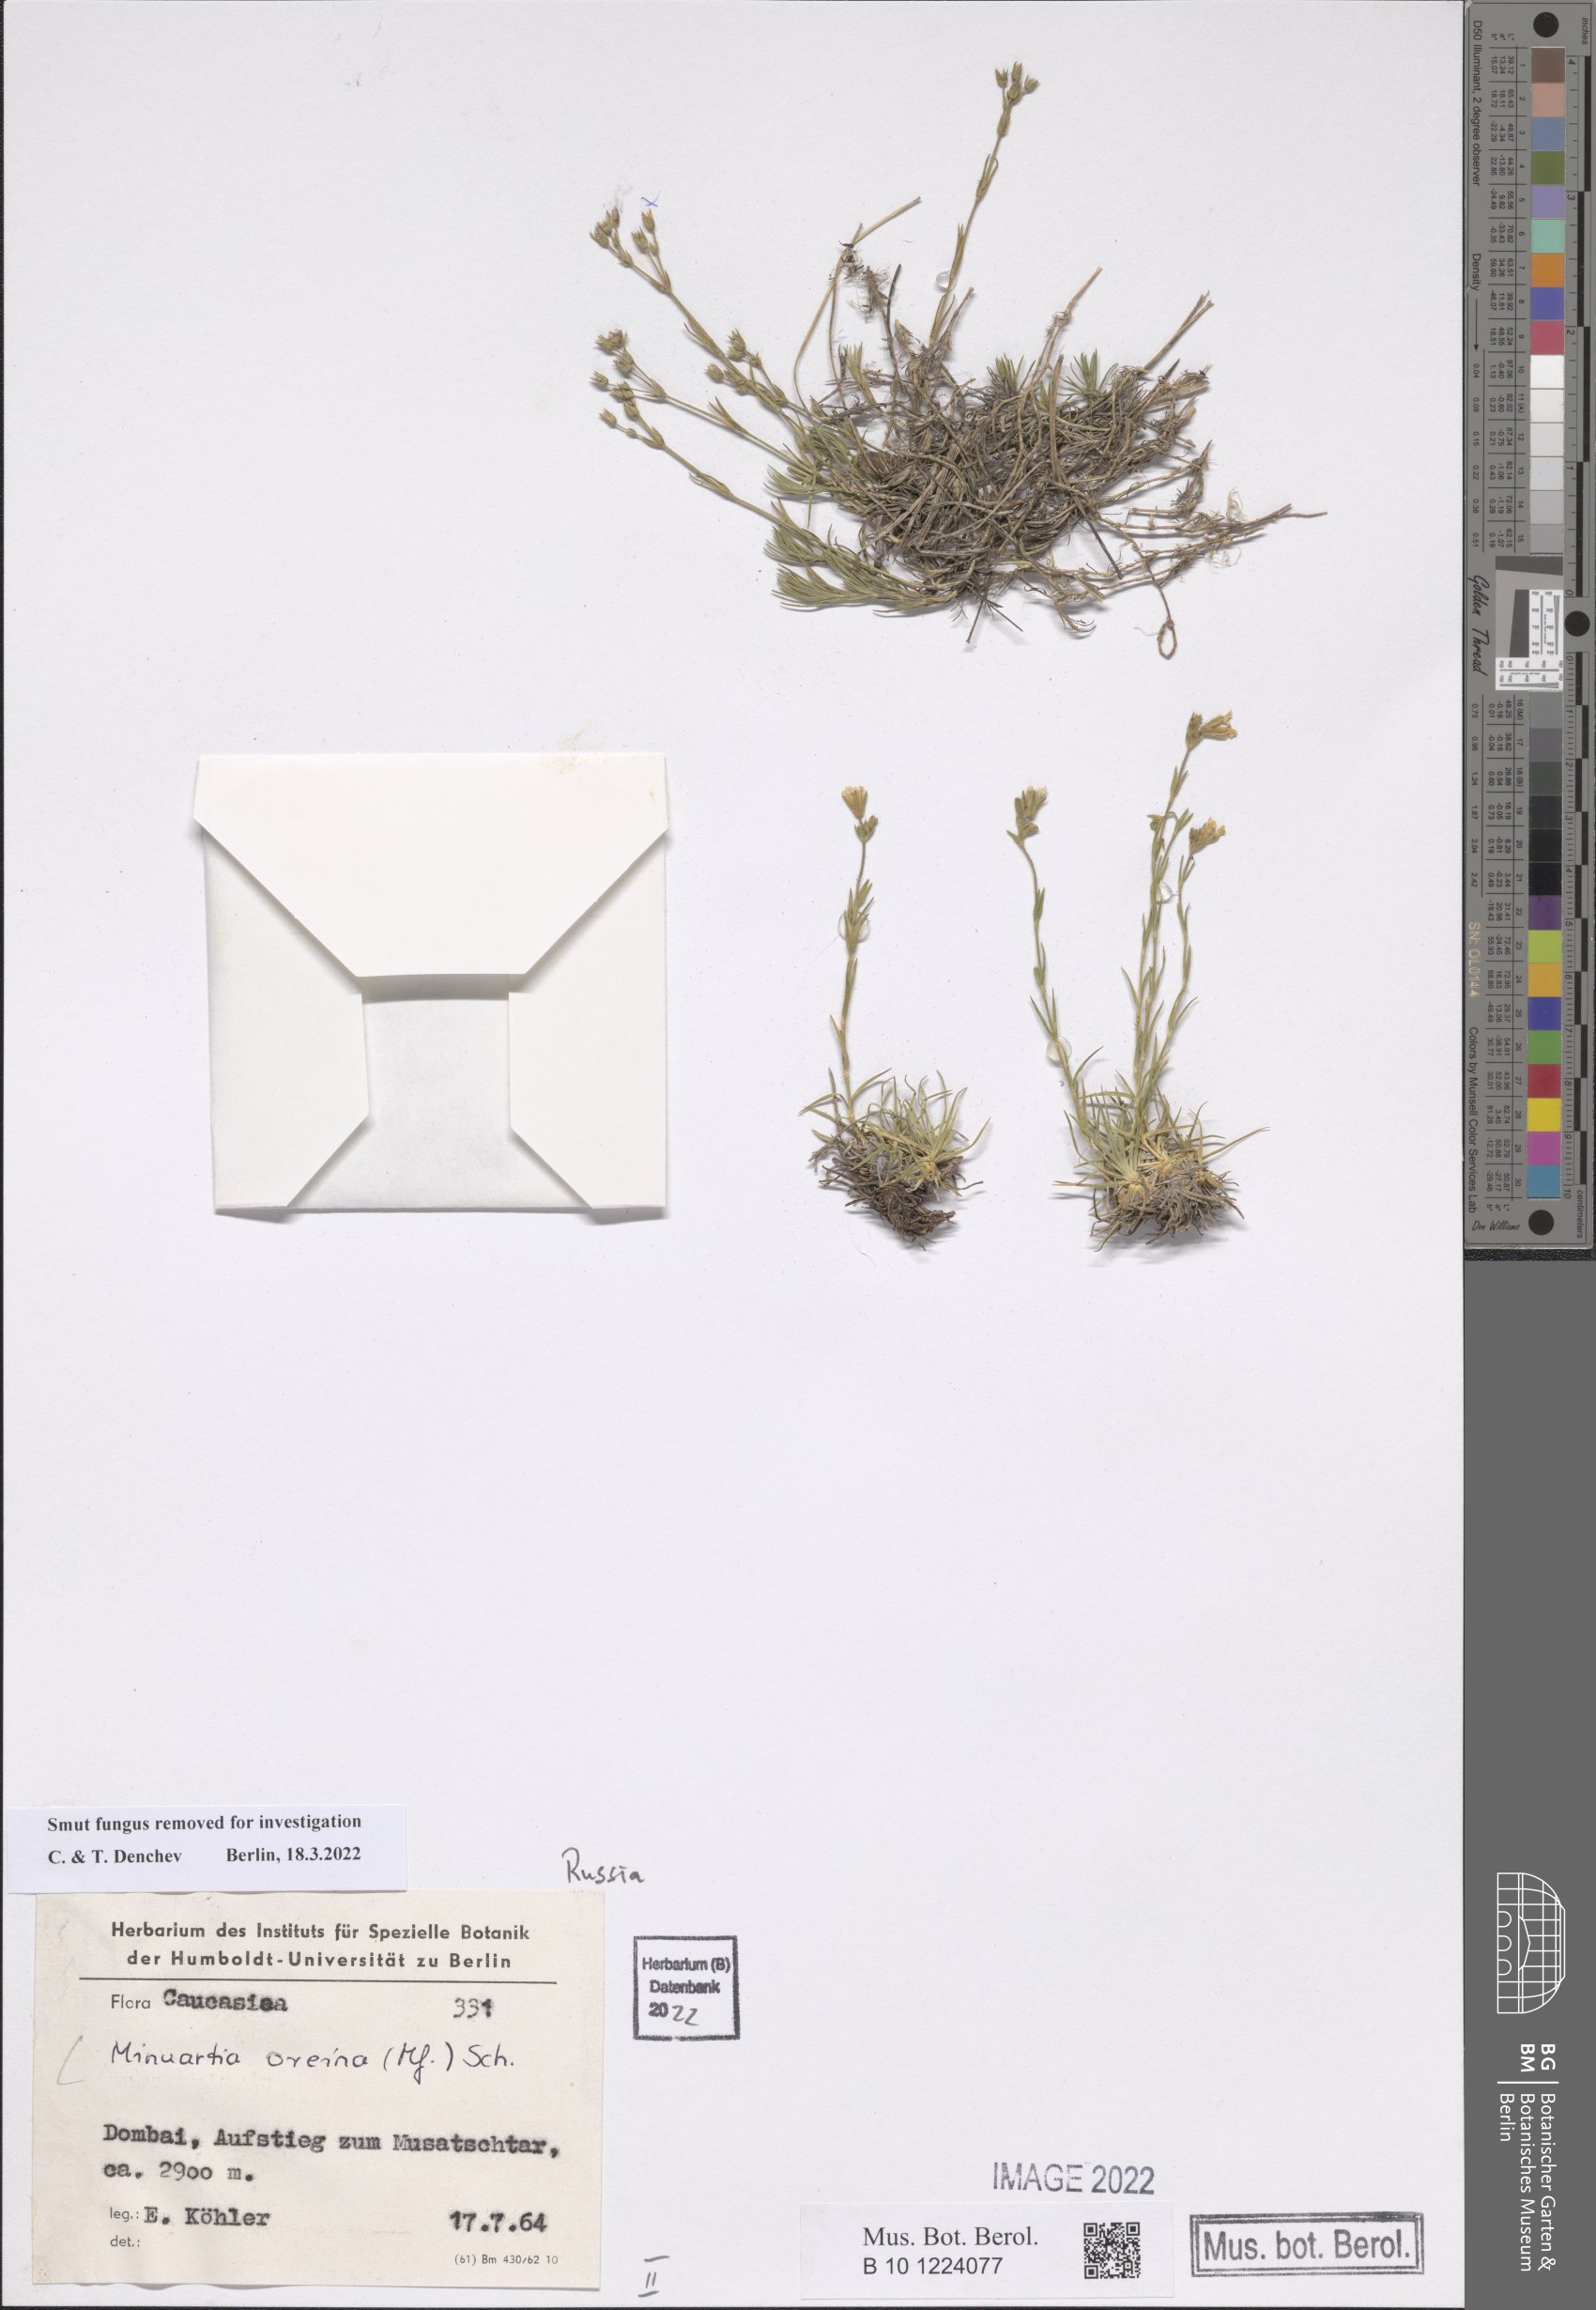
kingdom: Plantae
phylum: Tracheophyta
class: Magnoliopsida
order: Caryophyllales
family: Caryophyllaceae
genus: Minuartia
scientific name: Minuartia hirsuta
